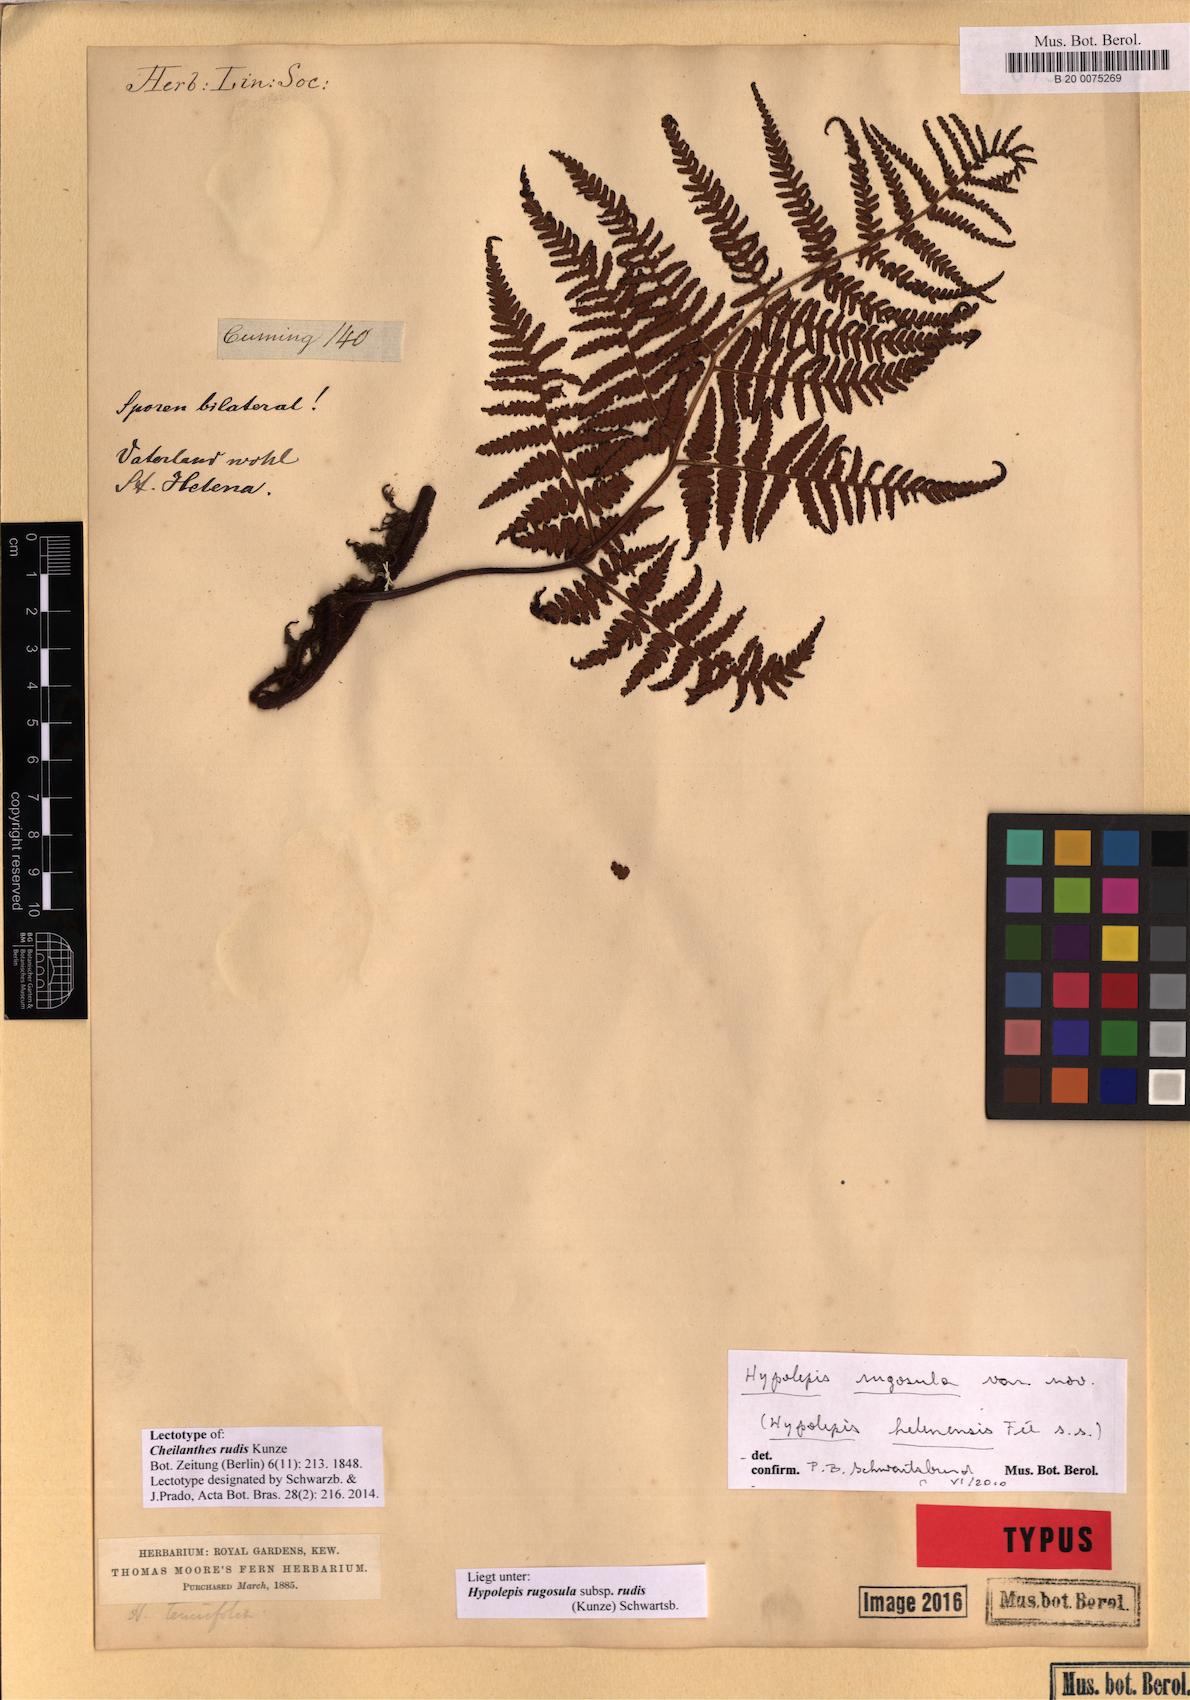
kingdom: Plantae
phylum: Tracheophyta
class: Polypodiopsida
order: Polypodiales
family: Dennstaedtiaceae
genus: Hypolepis
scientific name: Hypolepis rugosula
